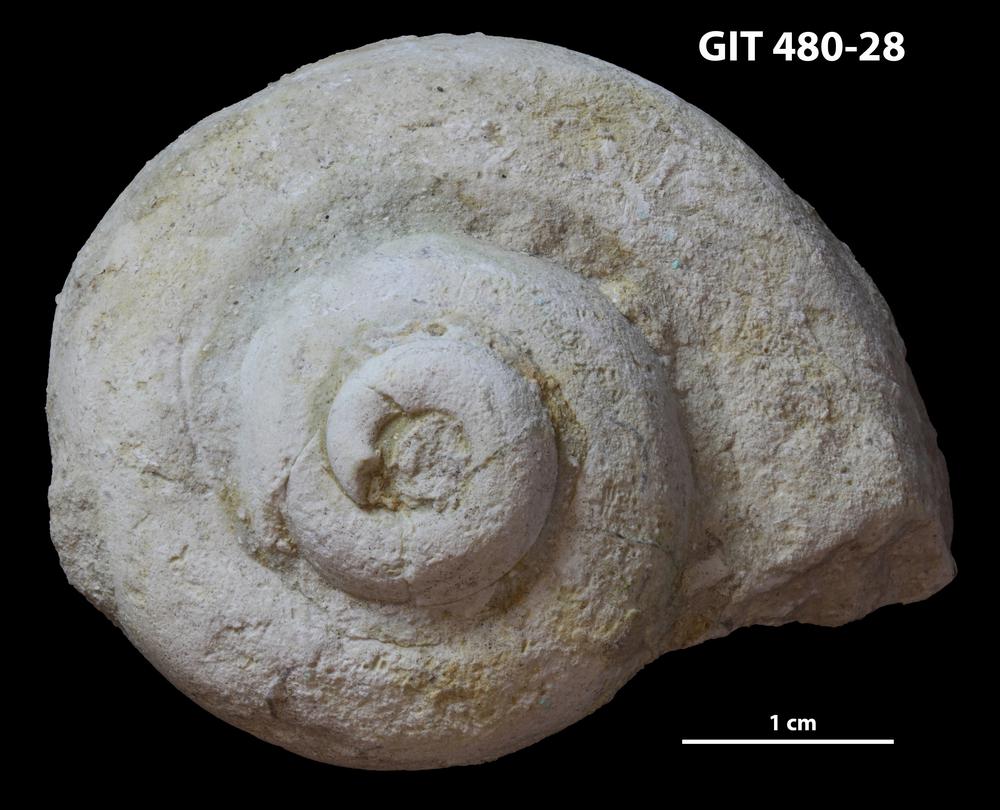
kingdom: Animalia
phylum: Mollusca
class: Gastropoda
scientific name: Gastropoda
